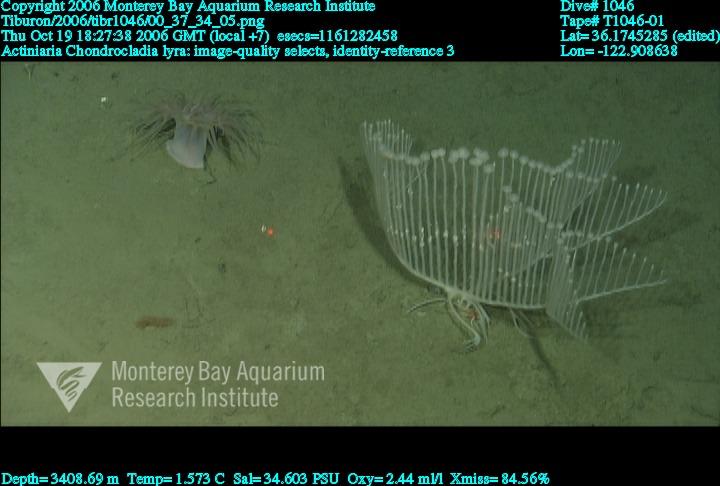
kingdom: Animalia
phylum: Porifera
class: Demospongiae
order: Poecilosclerida
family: Cladorhizidae
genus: Chondrocladia
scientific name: Chondrocladia lyra
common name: Harp sponge
